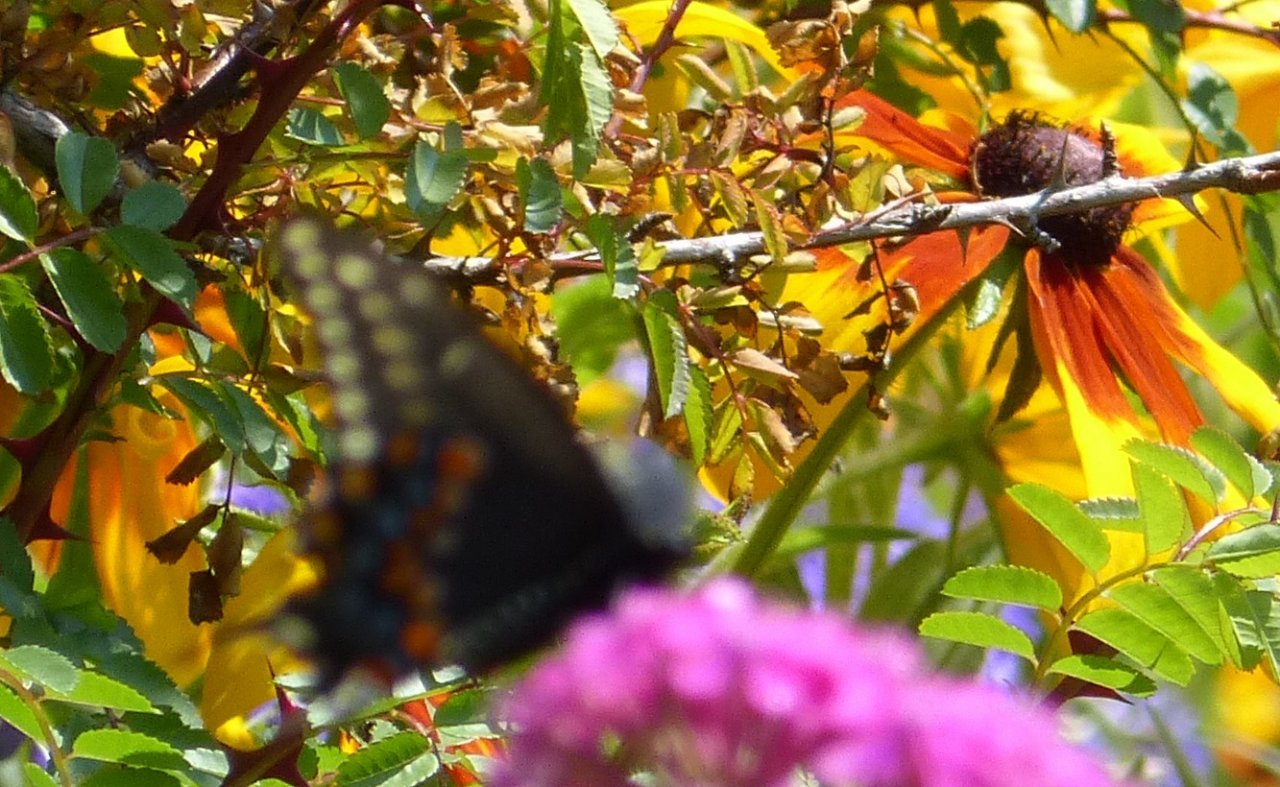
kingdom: Animalia
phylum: Arthropoda
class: Insecta
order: Lepidoptera
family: Papilionidae
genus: Papilio
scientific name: Papilio polyxenes
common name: Black Swallowtail
